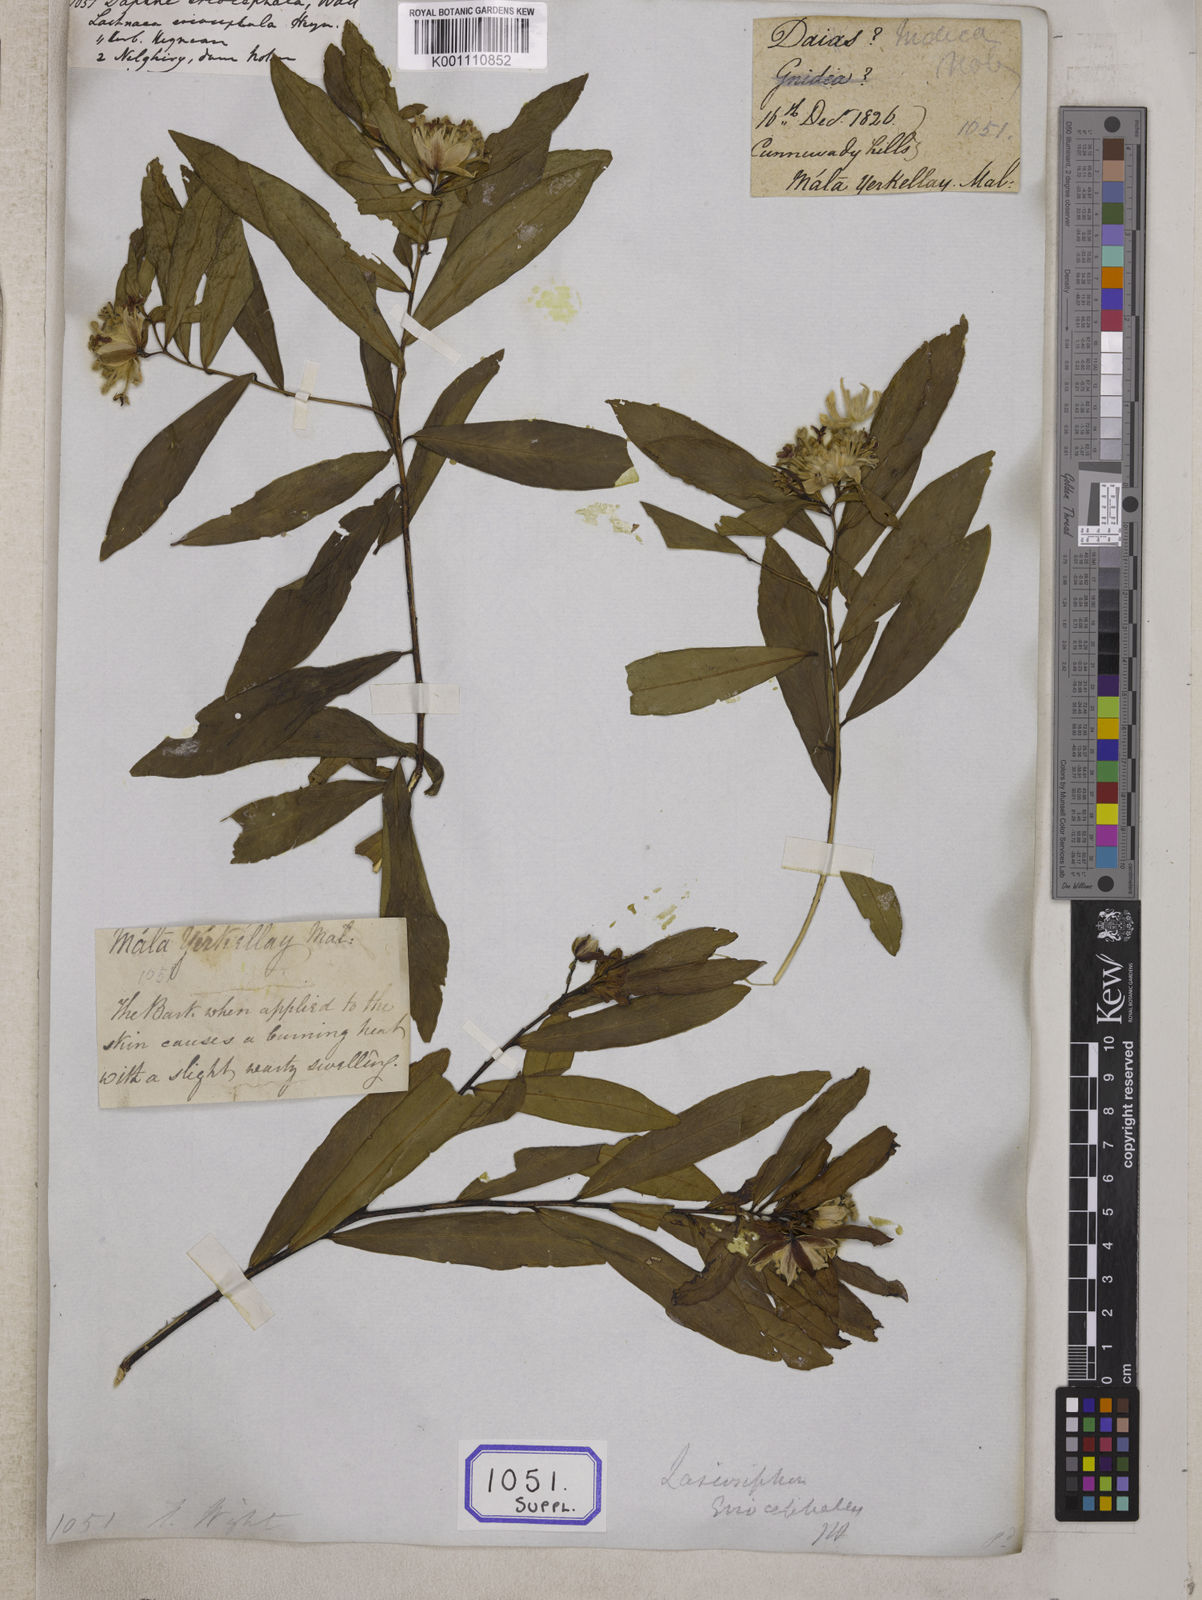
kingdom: Plantae
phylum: Tracheophyta
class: Magnoliopsida
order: Malvales
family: Thymelaeaceae
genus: Daphne
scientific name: Daphne
